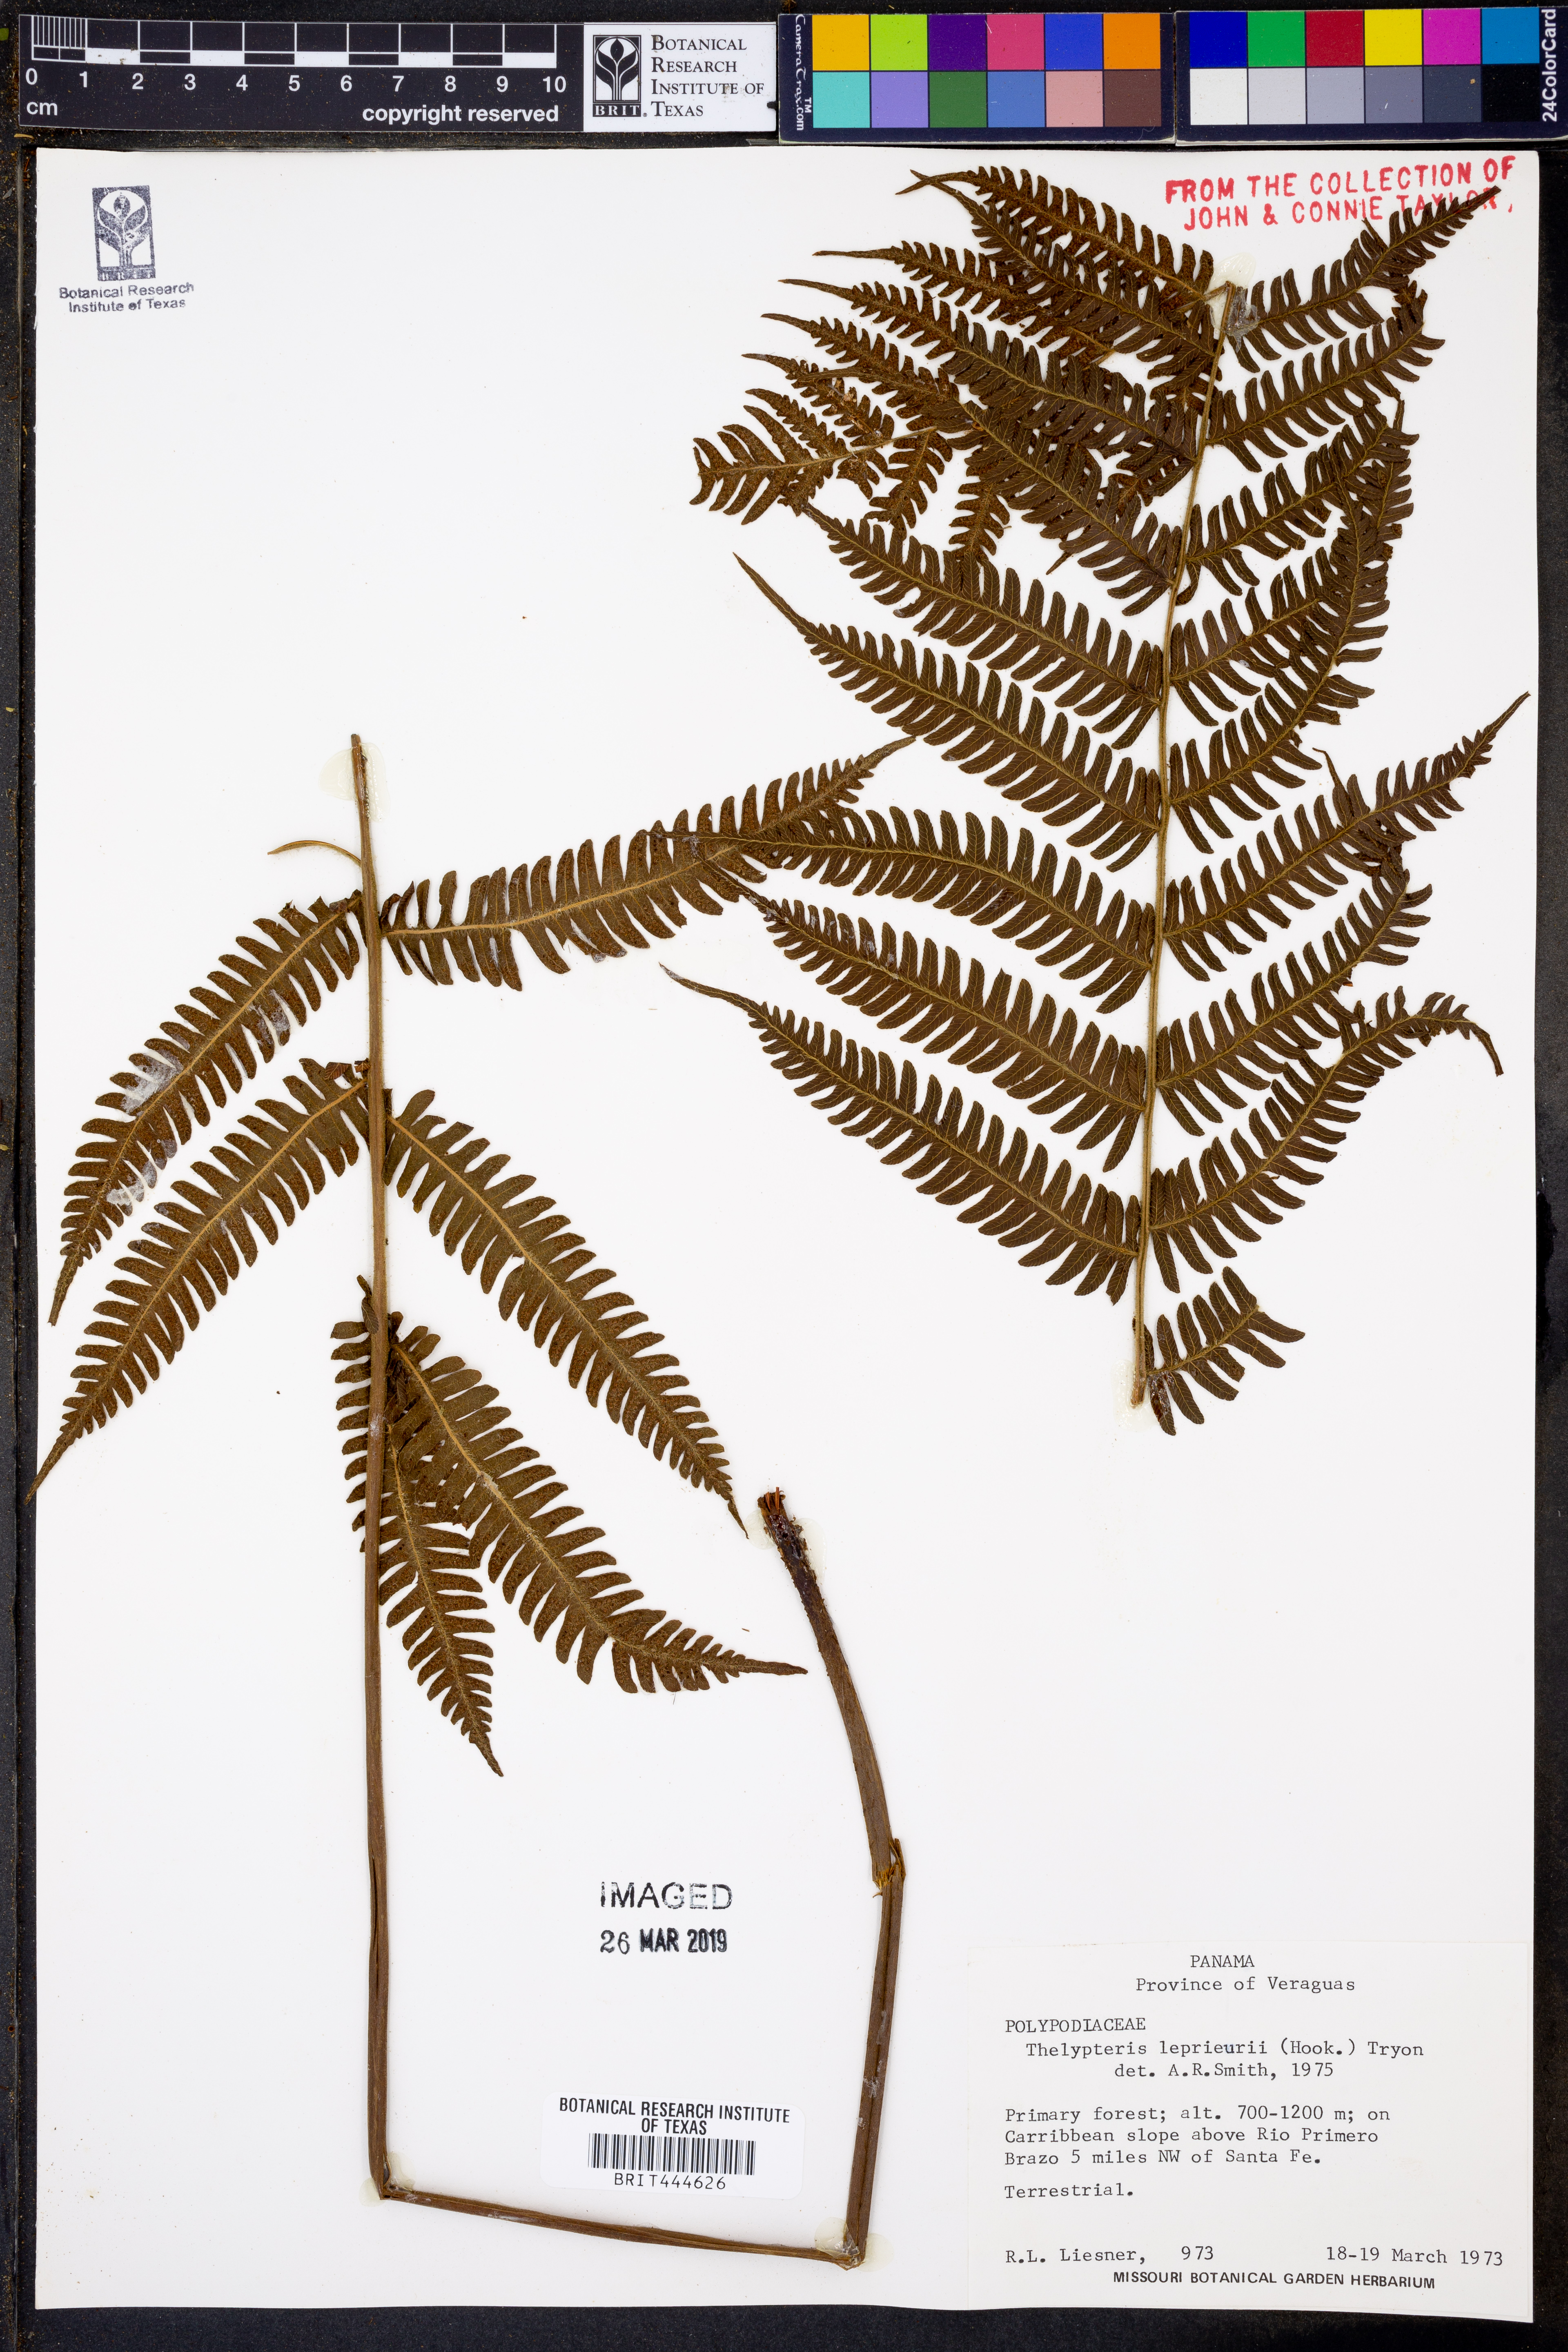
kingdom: Plantae
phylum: Tracheophyta
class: Polypodiopsida
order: Polypodiales
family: Thelypteridaceae
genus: Steiropteris
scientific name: Steiropteris leprieurii
